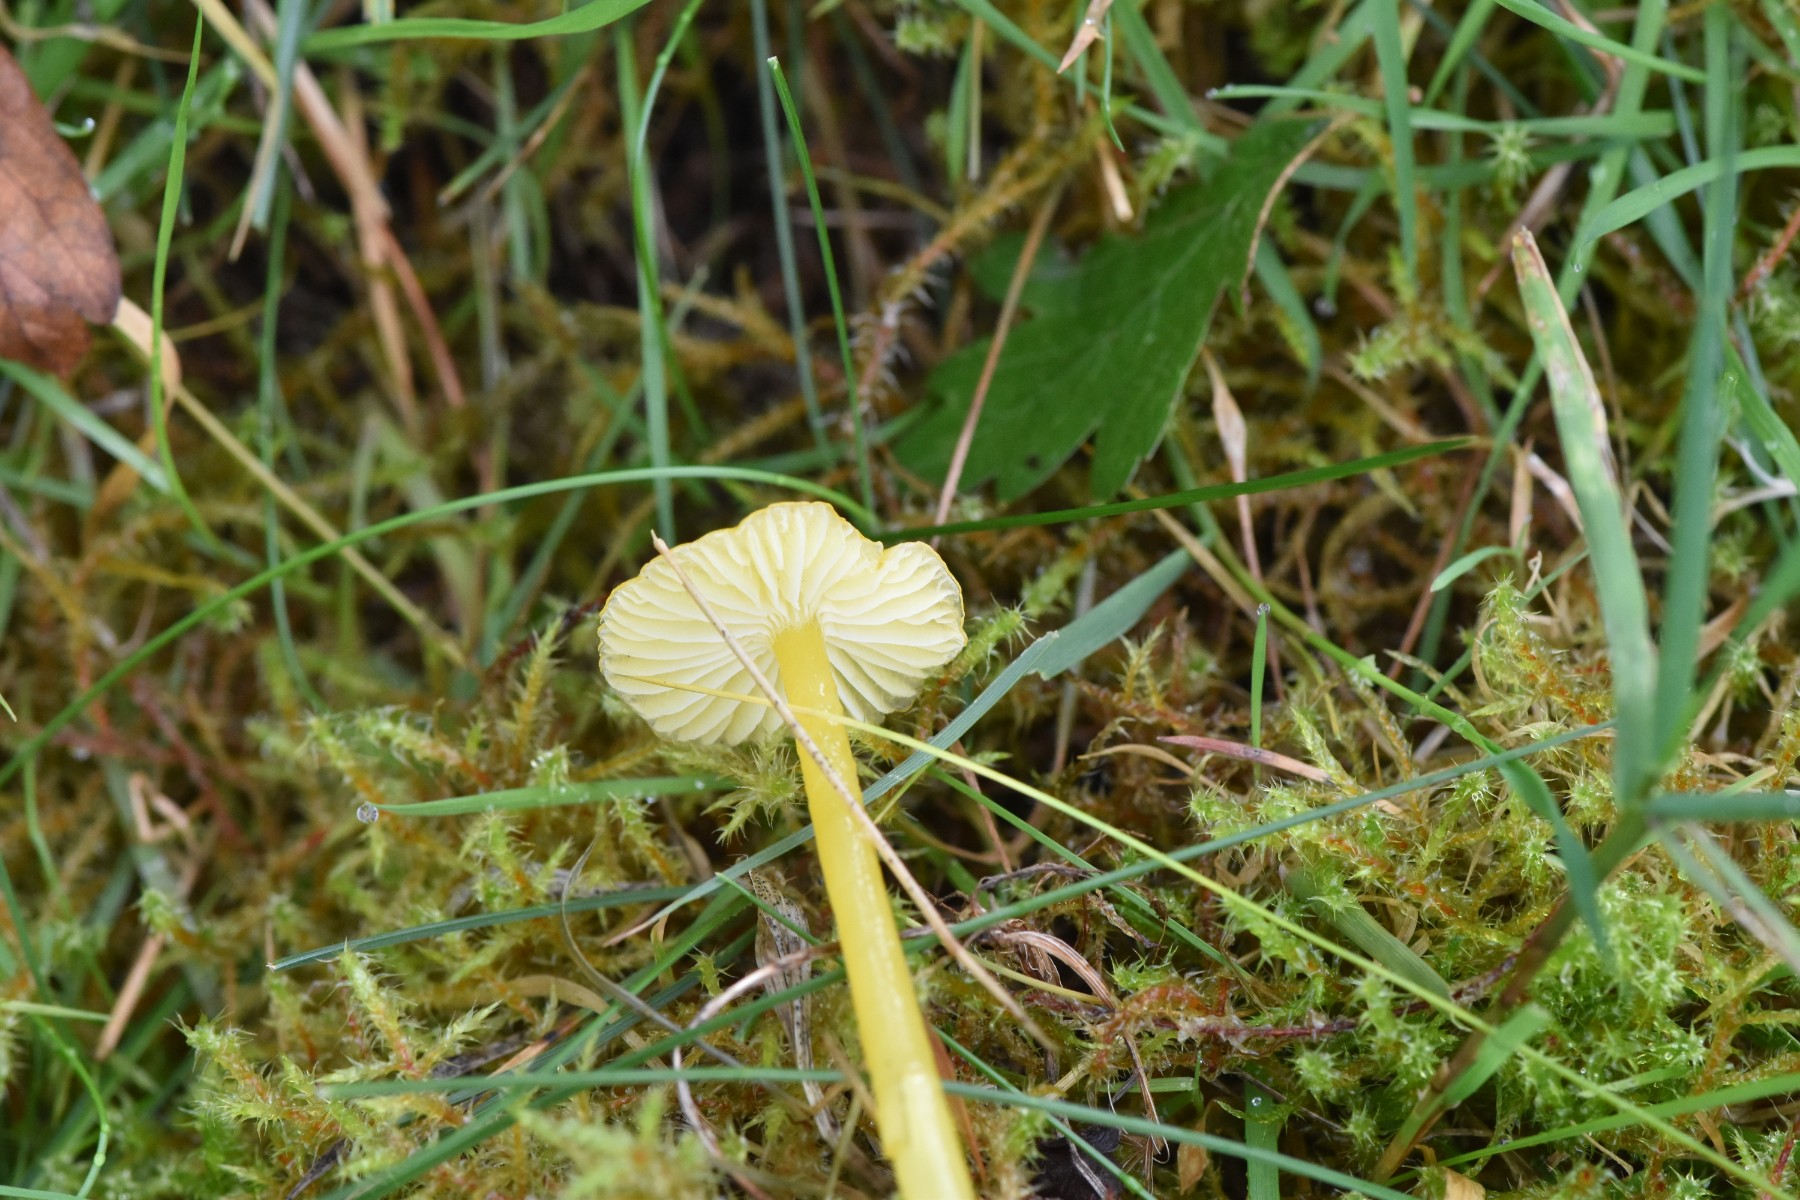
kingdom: Fungi
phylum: Basidiomycota
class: Agaricomycetes
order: Agaricales
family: Hygrophoraceae
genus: Hygrocybe
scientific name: Hygrocybe glutinipes
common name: slimstokket vokshat
